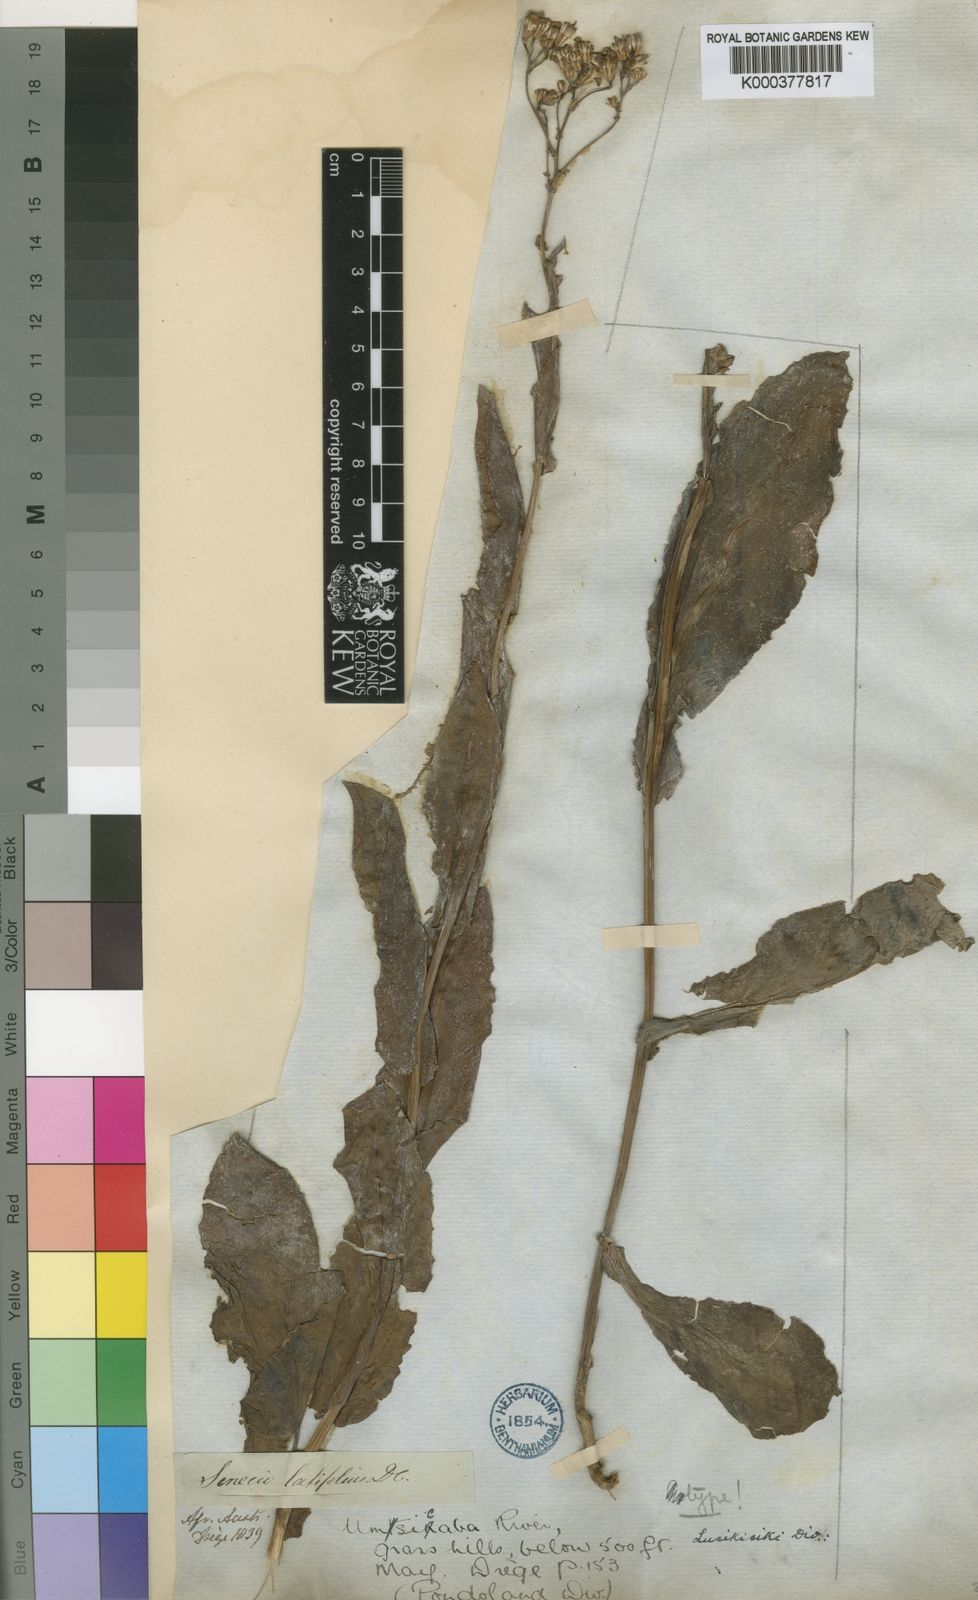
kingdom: Plantae
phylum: Tracheophyta
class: Magnoliopsida
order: Asterales
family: Asteraceae
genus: Senecio
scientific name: Senecio
